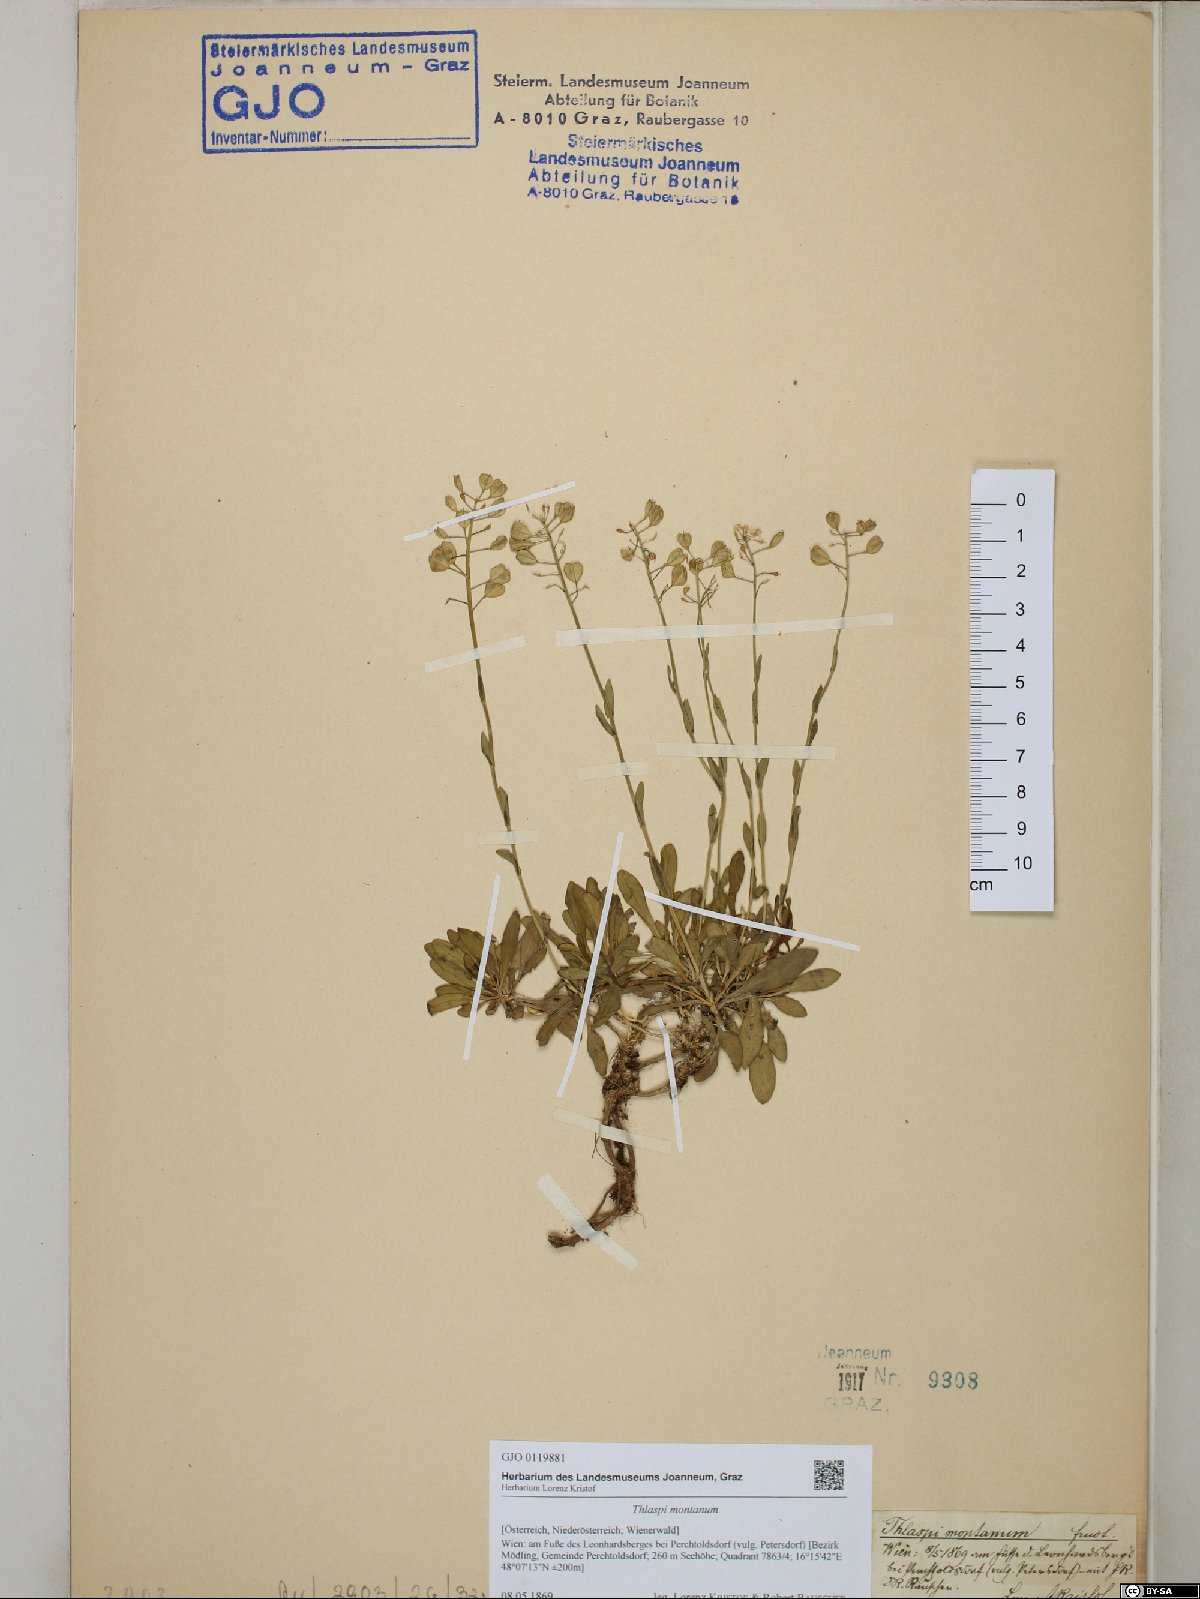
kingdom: Plantae
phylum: Tracheophyta
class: Magnoliopsida
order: Brassicales
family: Brassicaceae
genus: Noccaea
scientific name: Noccaea montana
